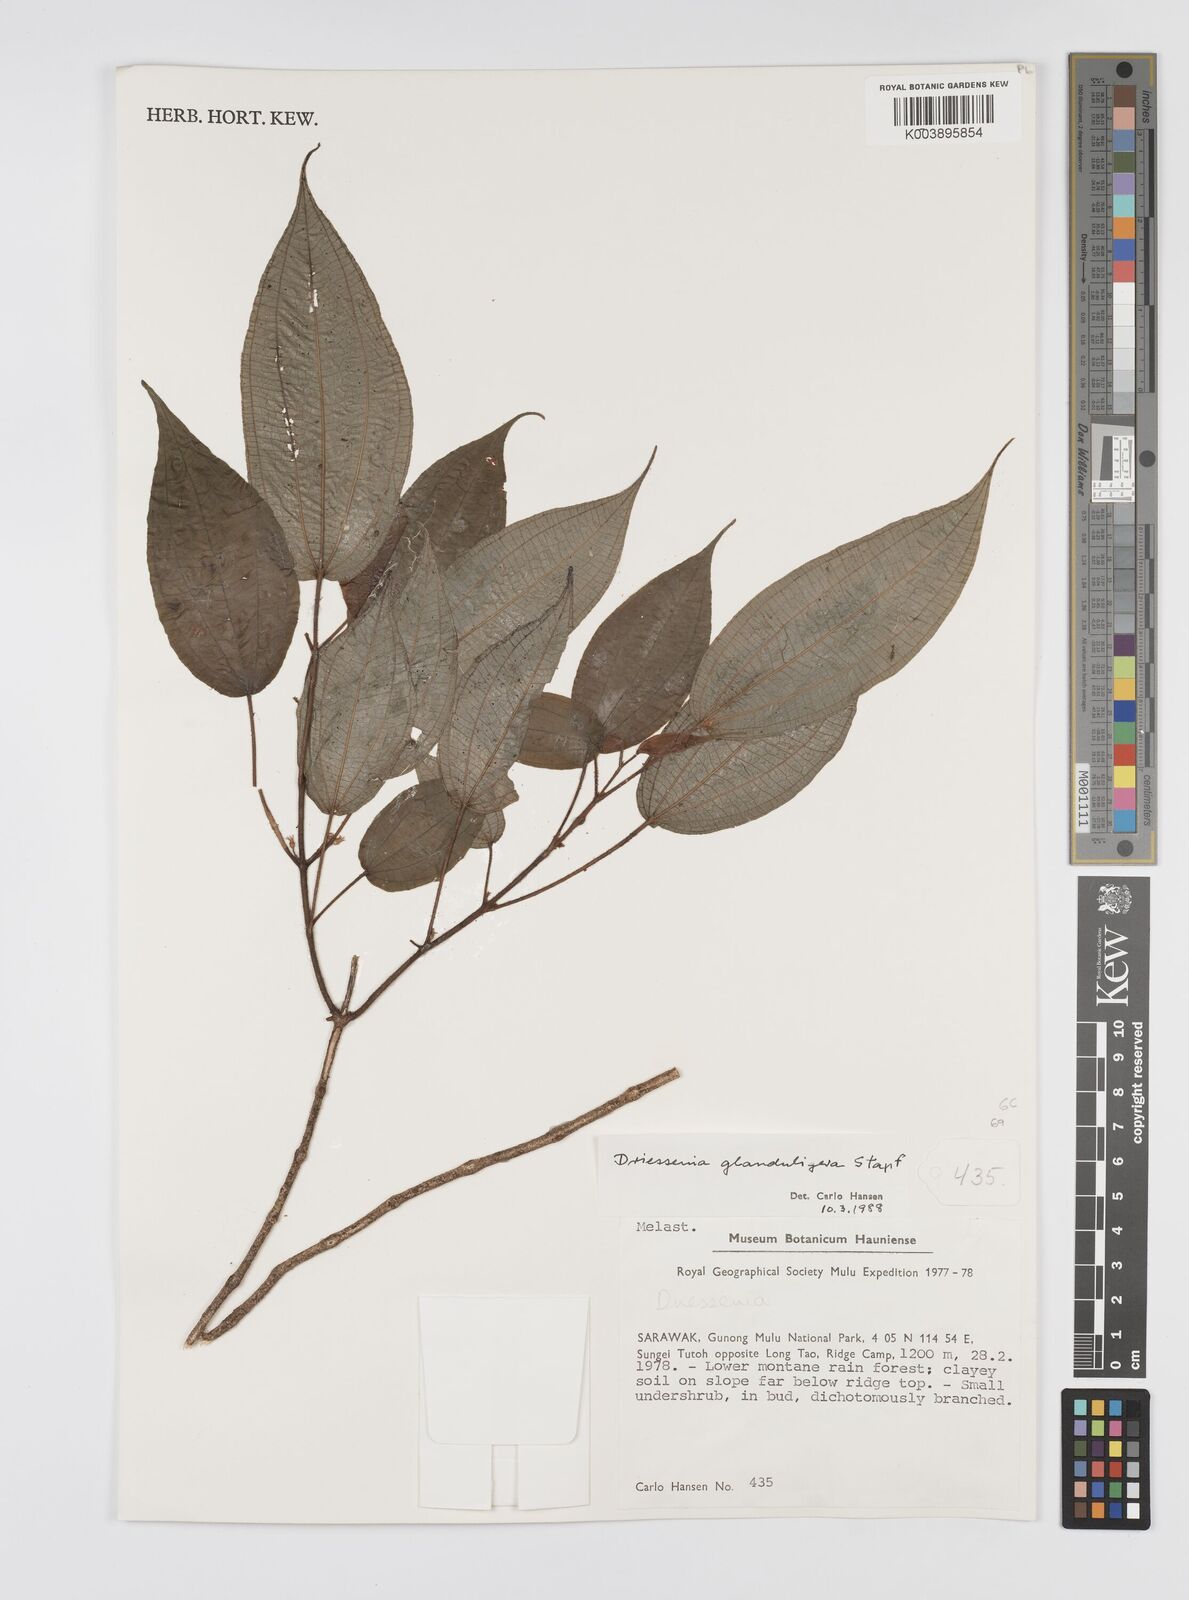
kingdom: Plantae
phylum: Tracheophyta
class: Magnoliopsida
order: Myrtales
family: Melastomataceae
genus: Driessenia
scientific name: Driessenia glanduligera
